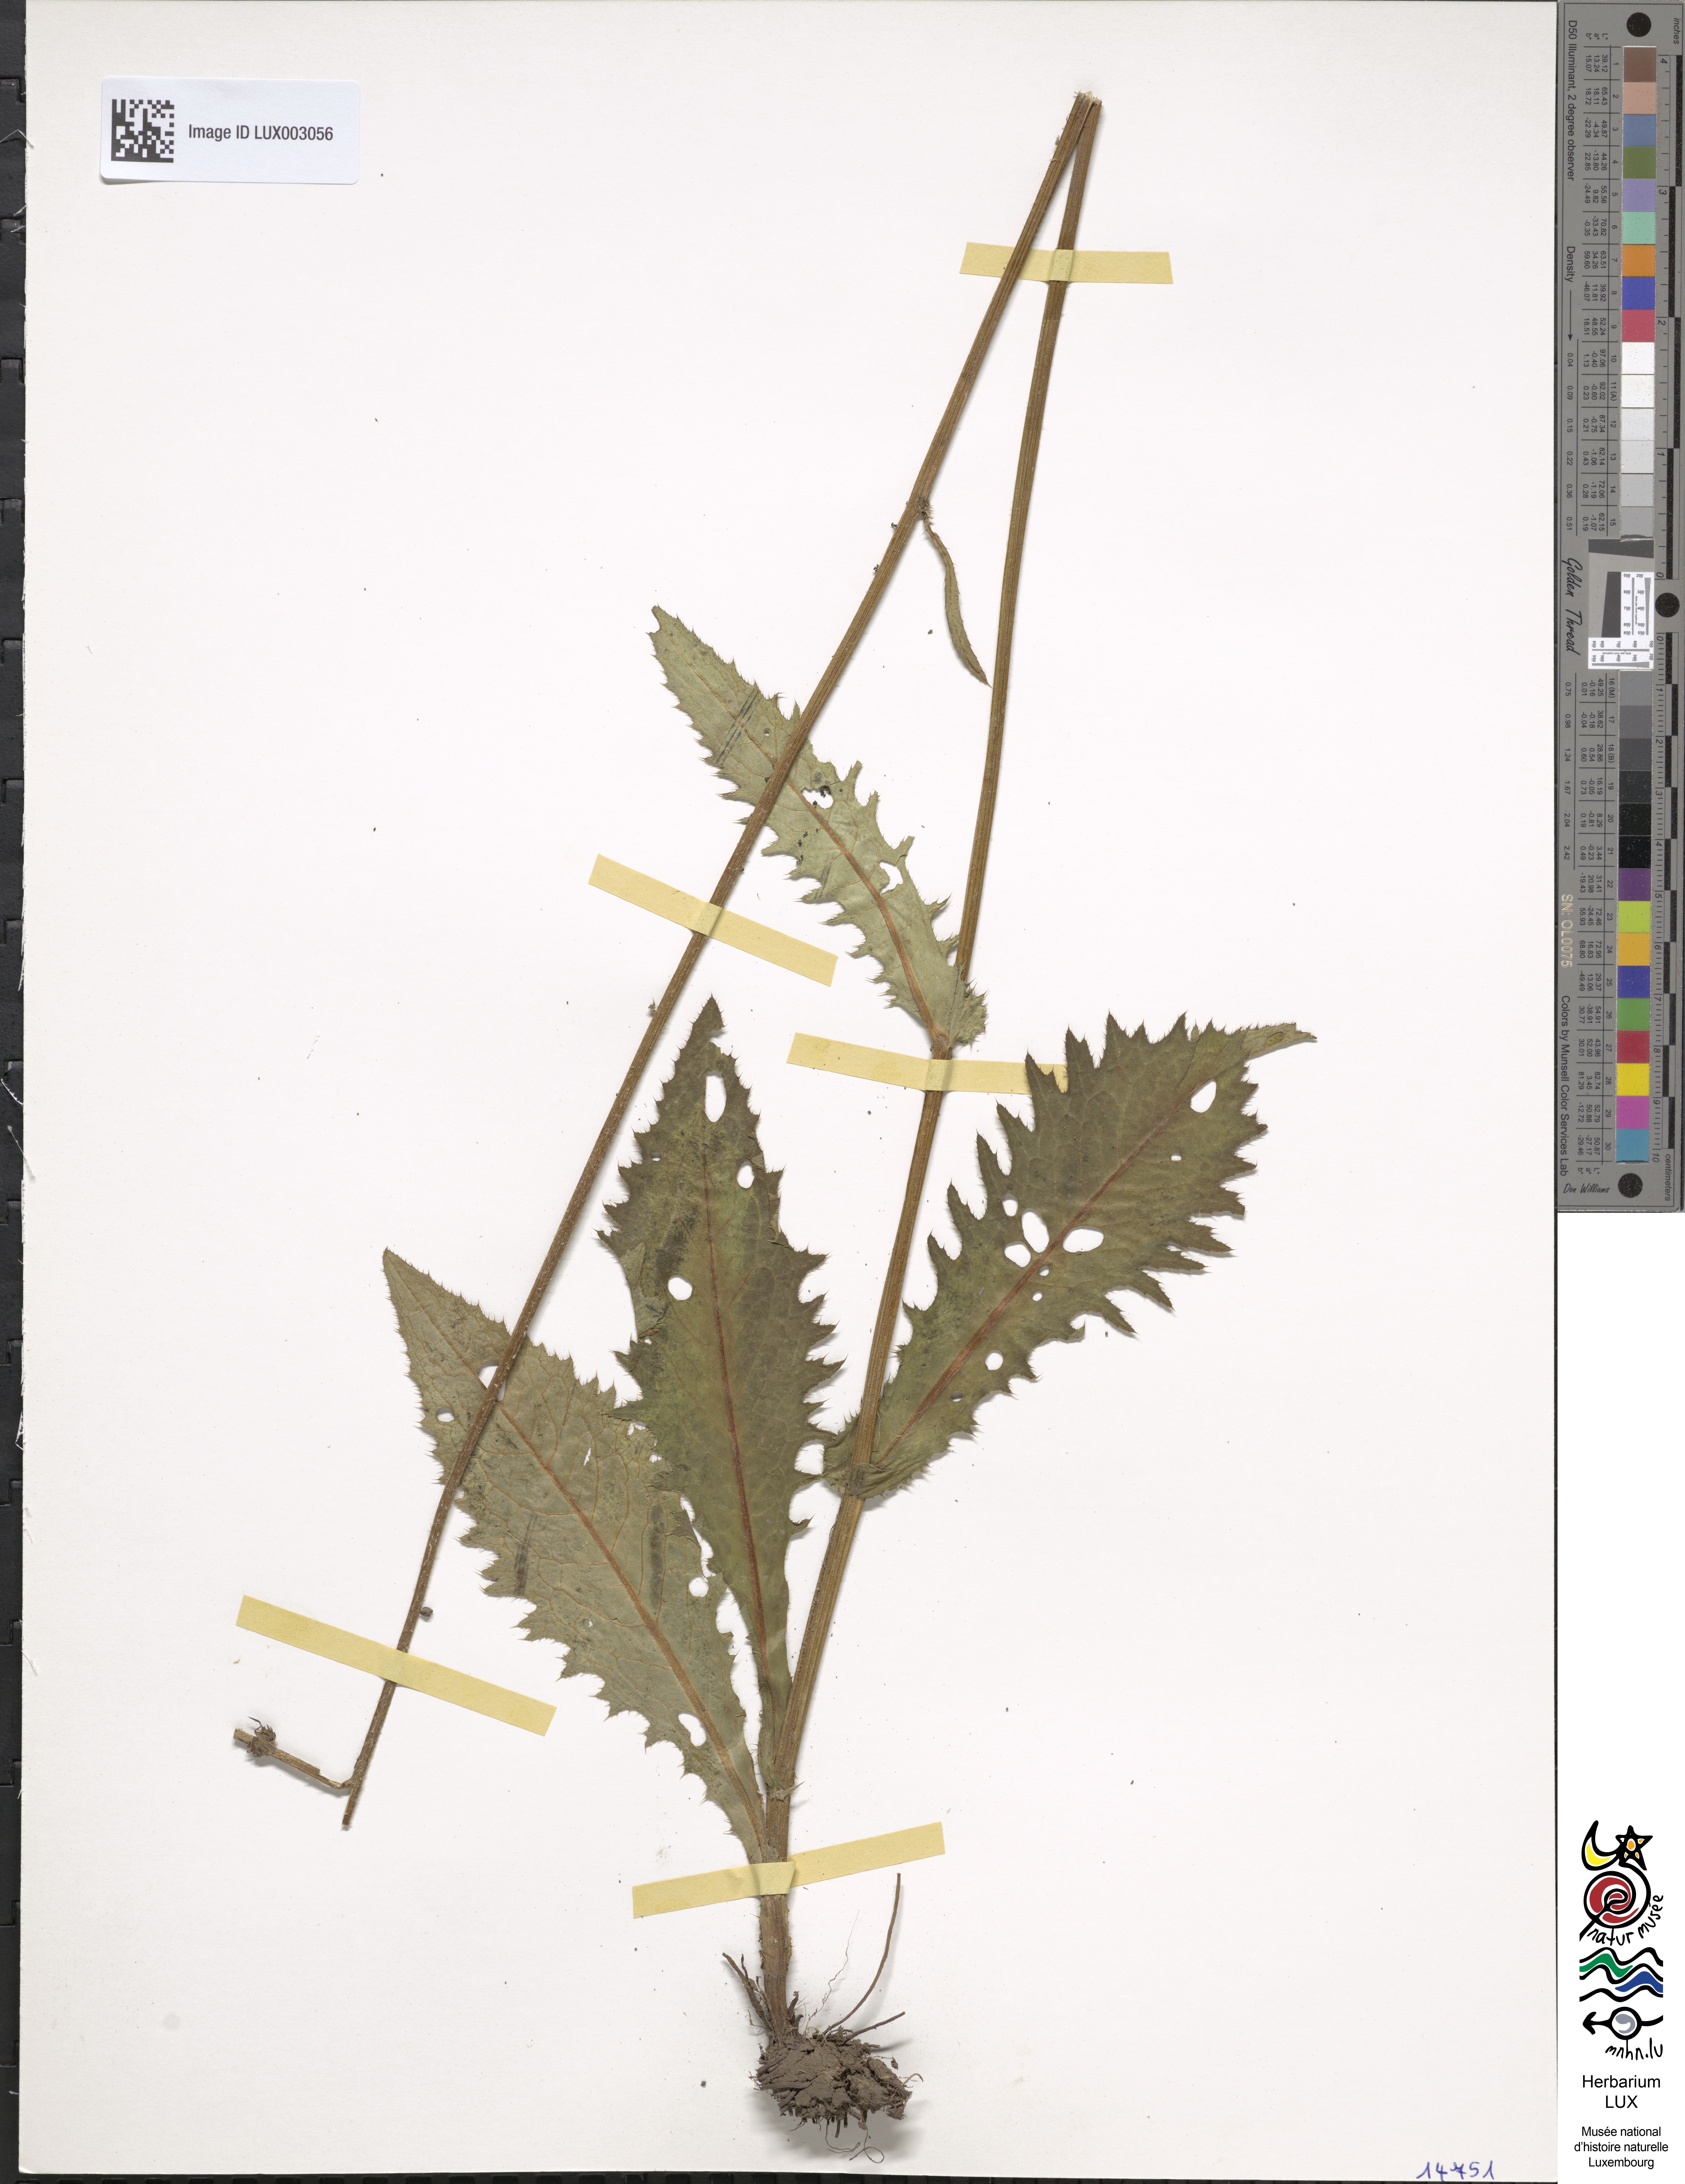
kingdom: Plantae
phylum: Tracheophyta
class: Magnoliopsida
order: Asterales
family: Asteraceae
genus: Cirsium
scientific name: Cirsium rivulare
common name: Brook thistle
